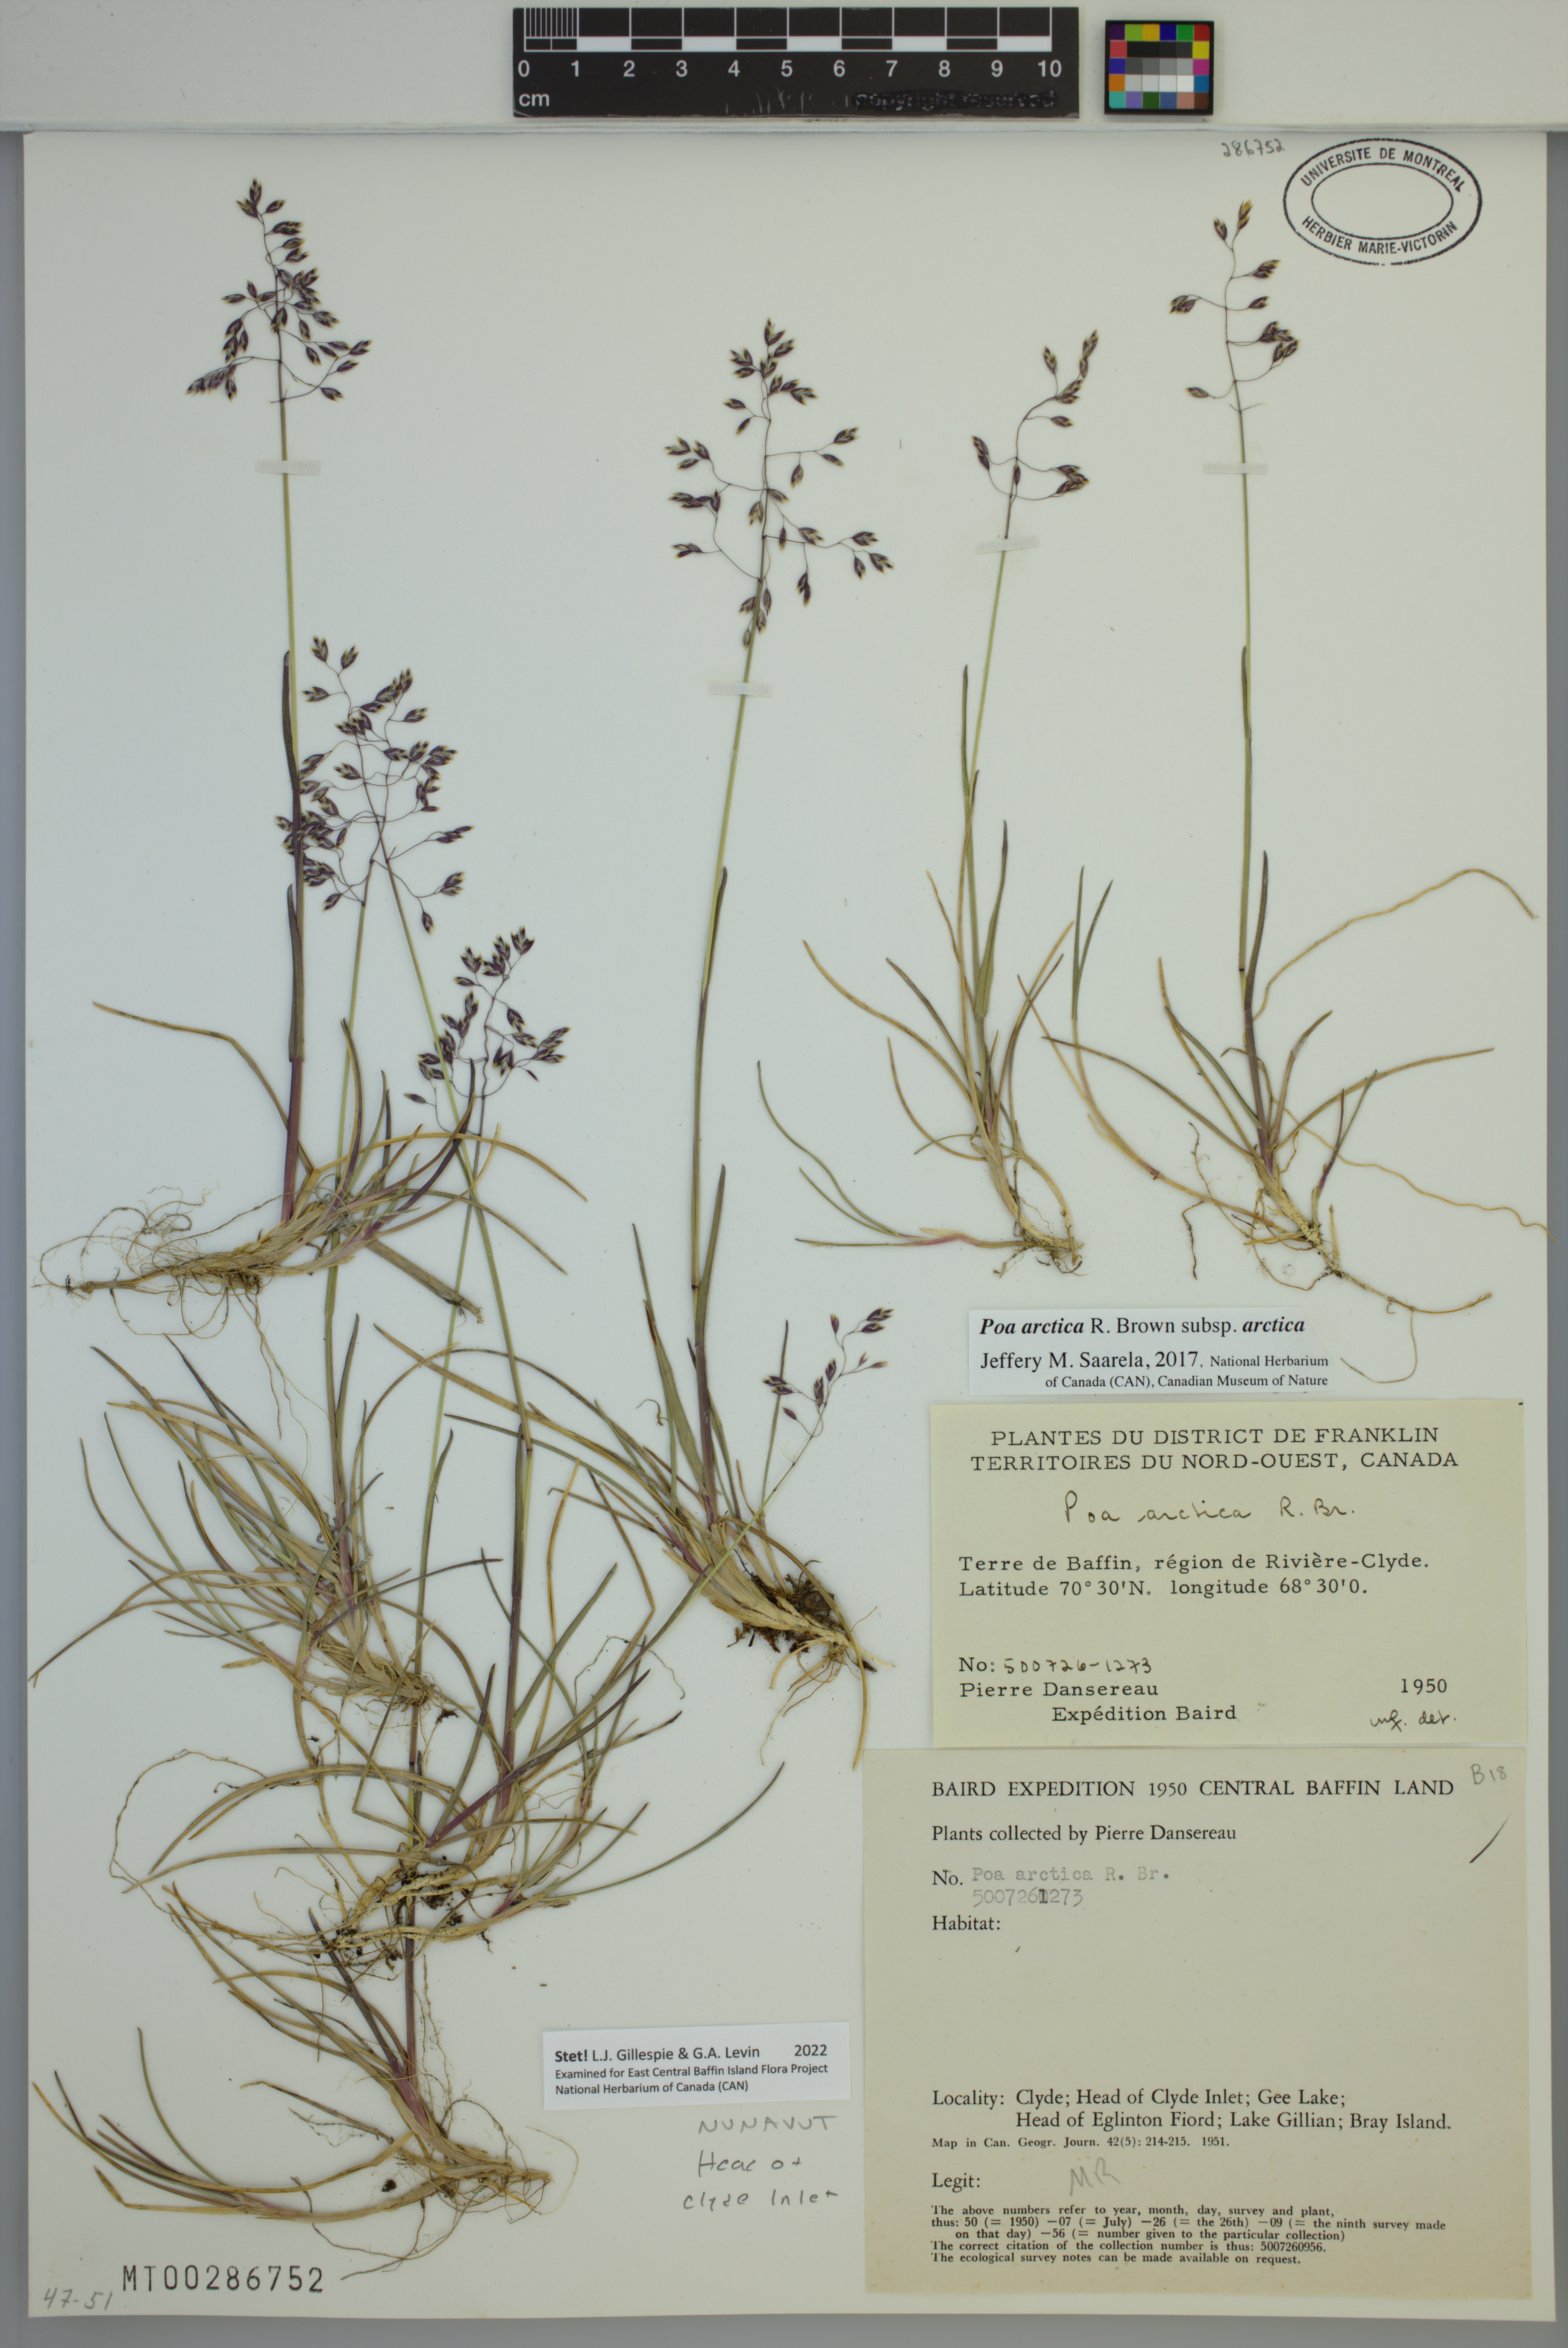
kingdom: Plantae
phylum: Tracheophyta
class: Liliopsida
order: Poales
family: Poaceae
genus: Poa
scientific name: Poa arctica
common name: Arctic bluegrass
